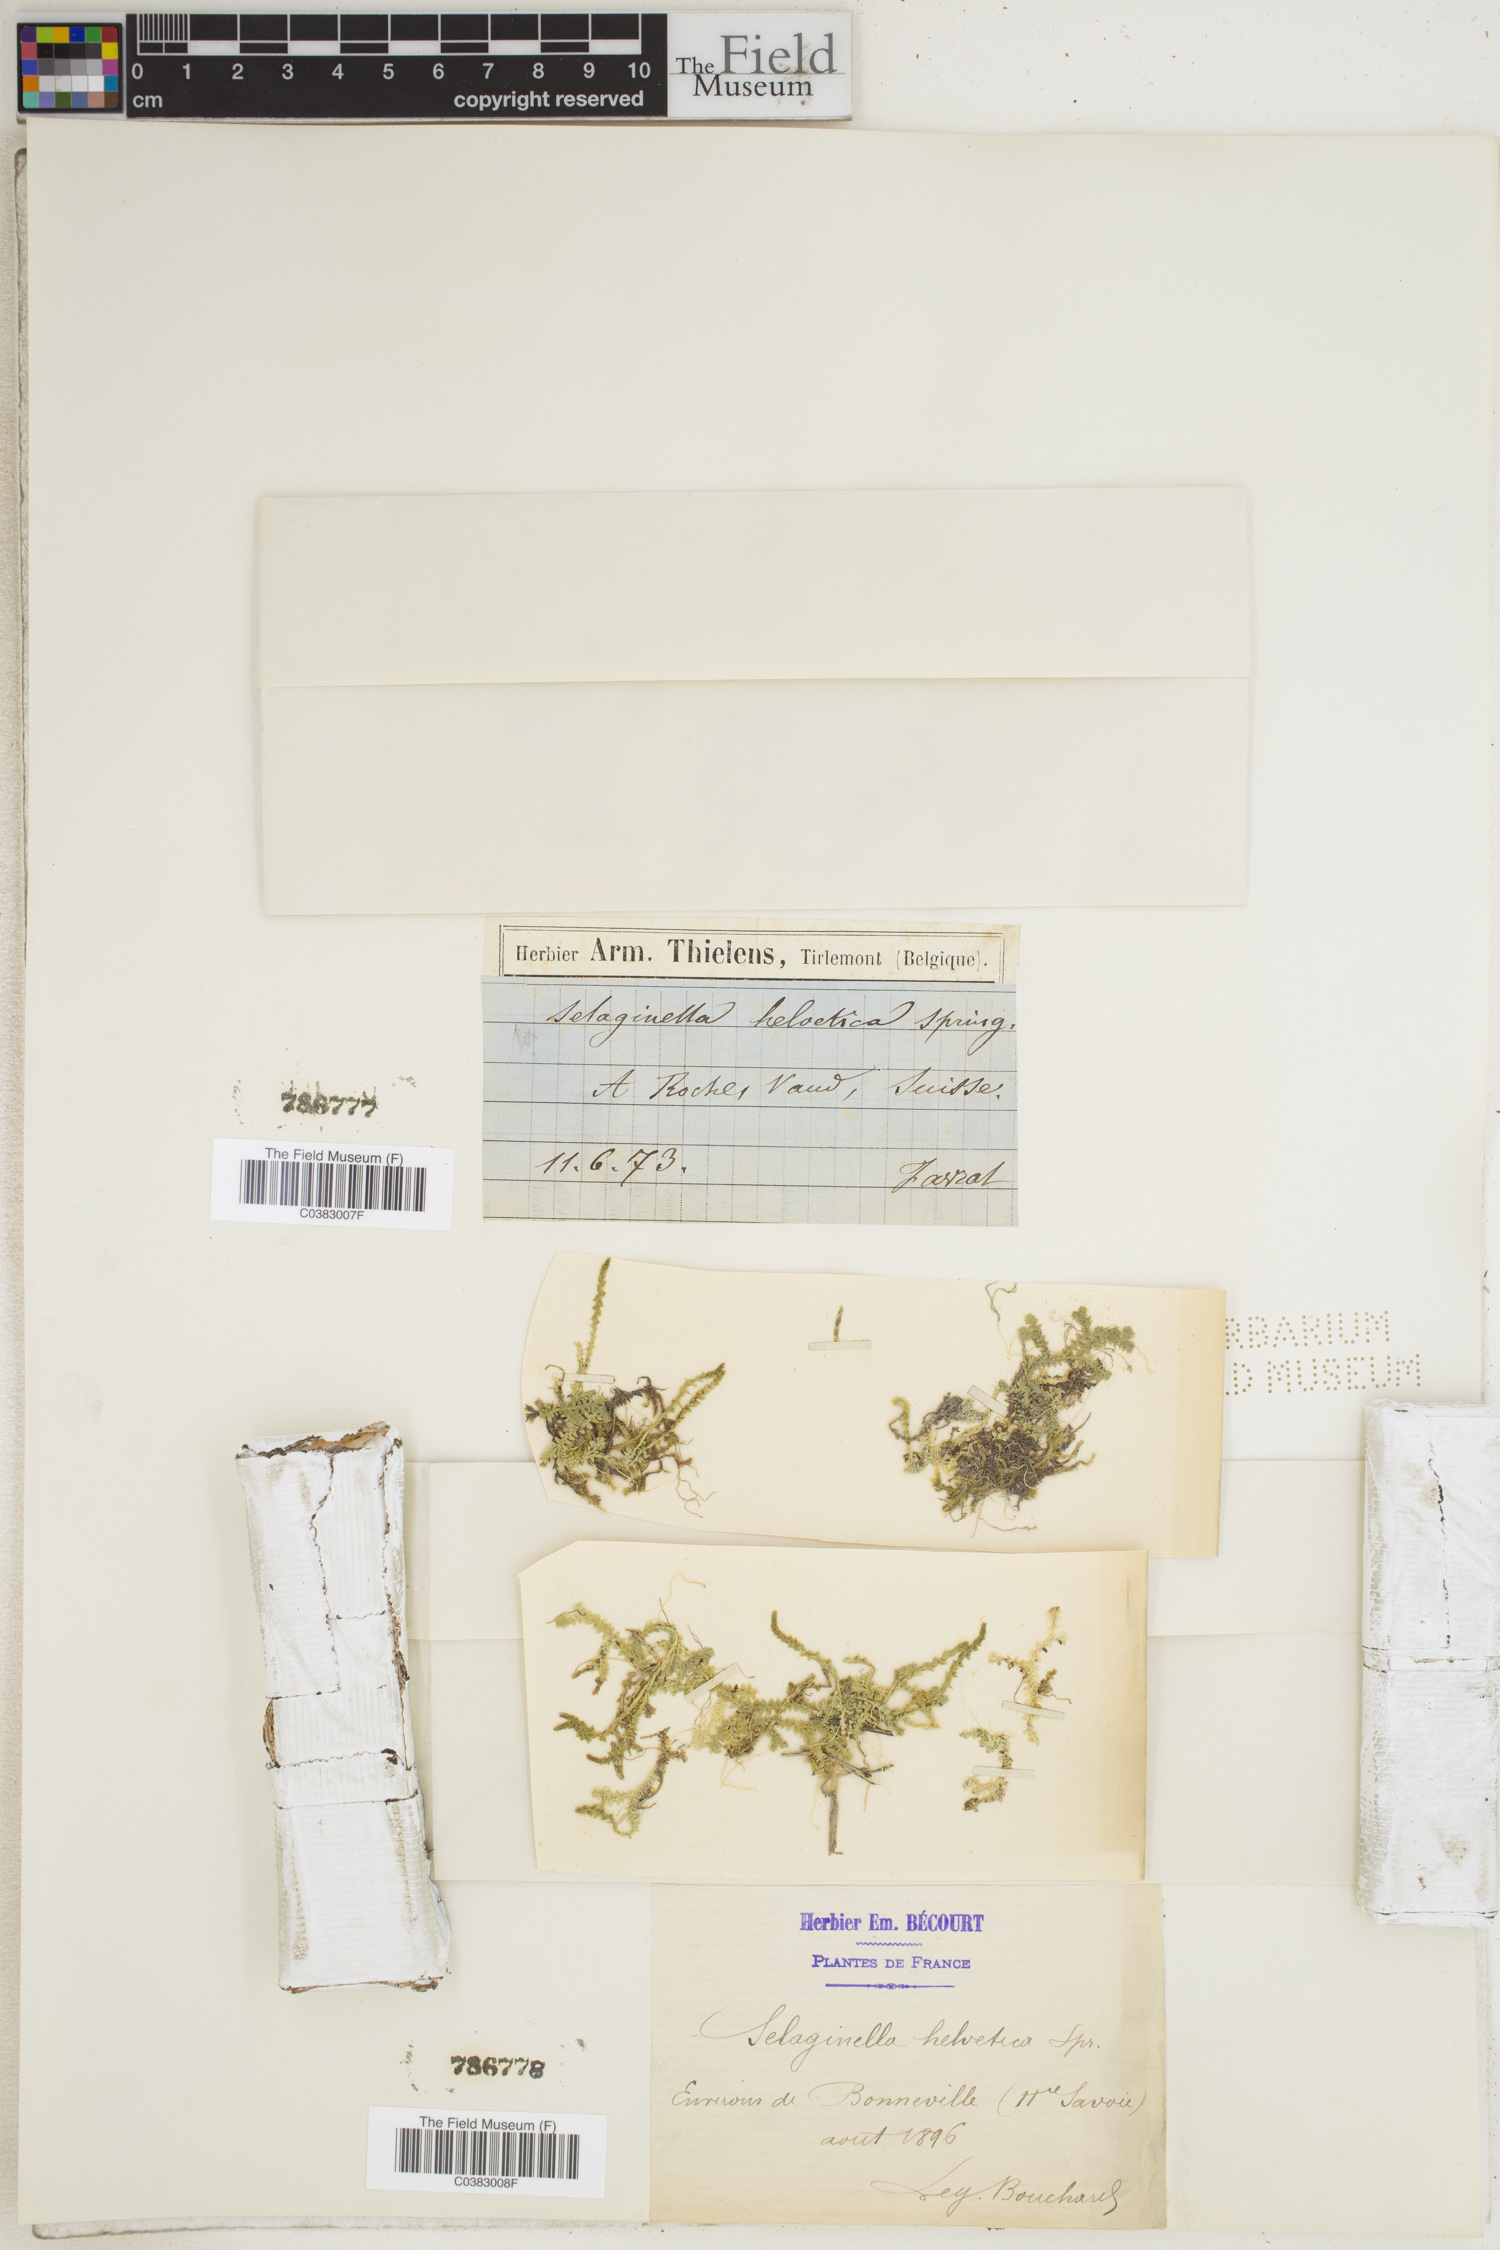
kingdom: Plantae
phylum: Tracheophyta
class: Lycopodiopsida
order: Selaginellales
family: Selaginellaceae
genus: Selaginella
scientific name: Selaginella helvetica
